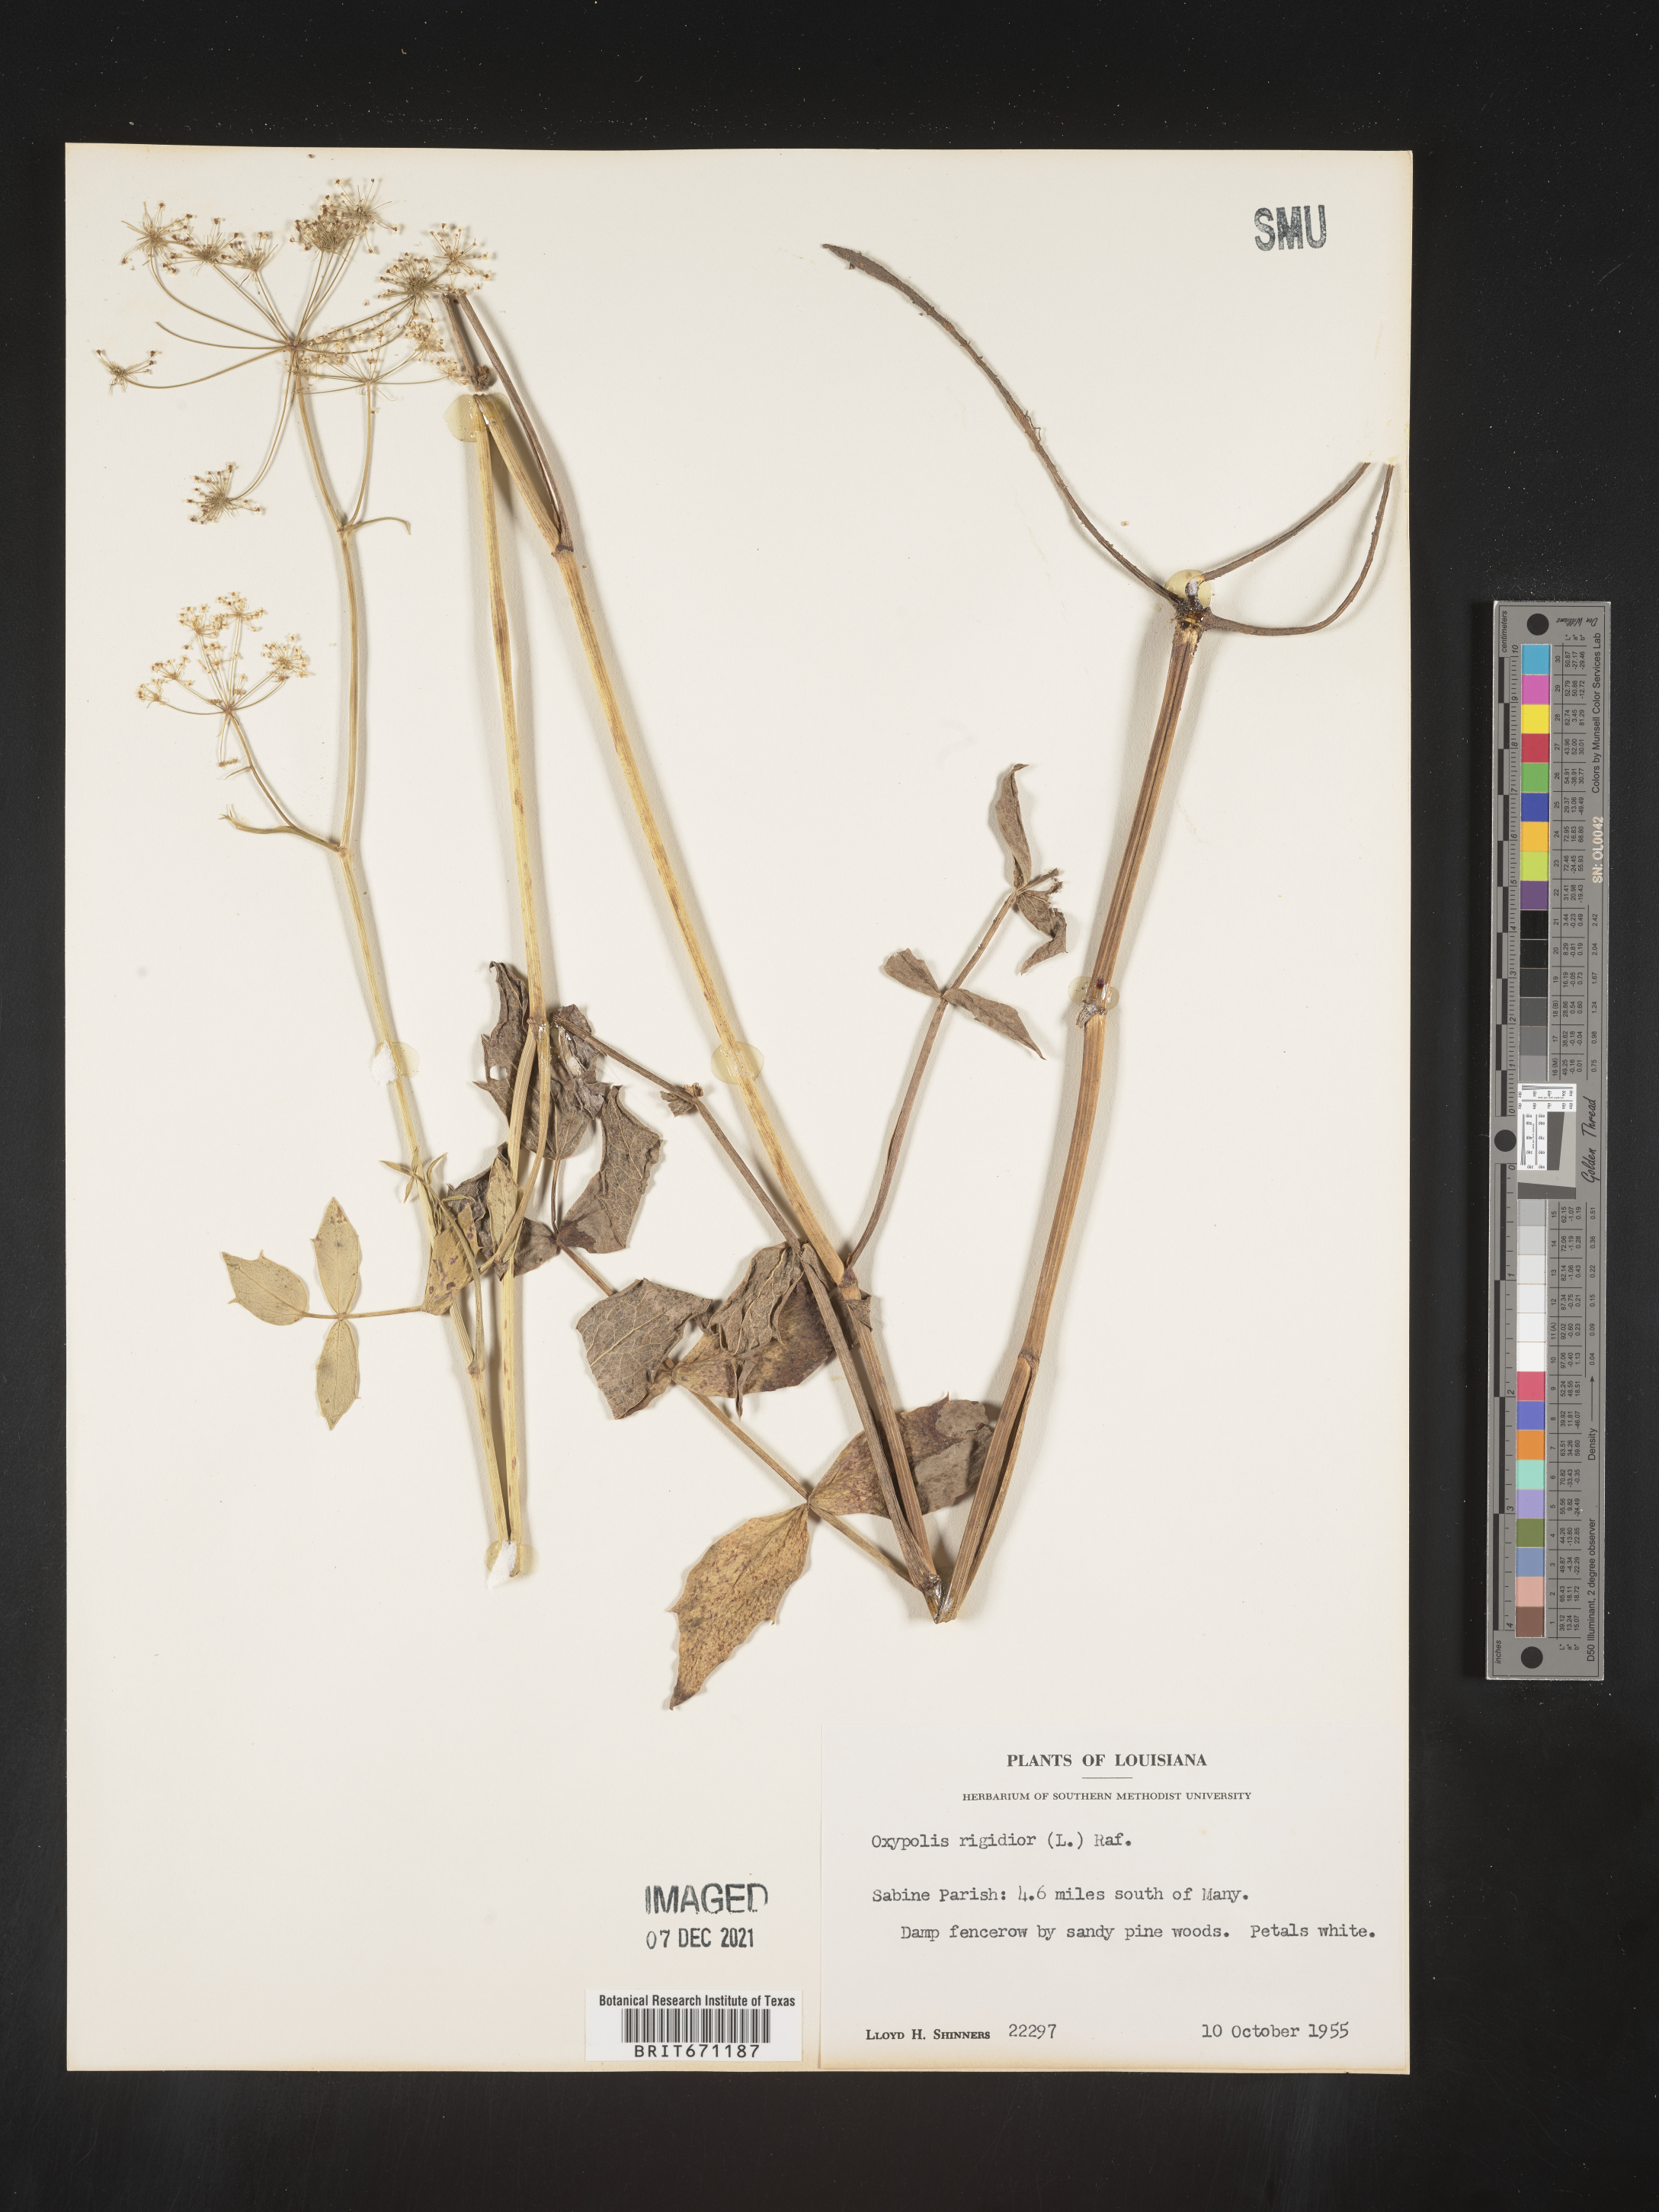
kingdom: Plantae
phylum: Tracheophyta
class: Magnoliopsida
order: Apiales
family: Apiaceae
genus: Oxypolis
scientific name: Oxypolis rigidior
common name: Cowbane
